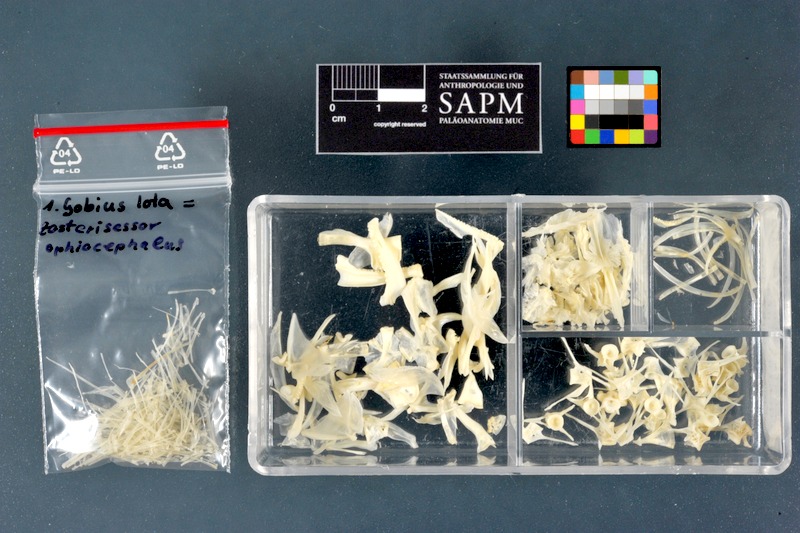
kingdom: Animalia
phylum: Chordata
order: Perciformes
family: Gobiidae
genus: Zosterisessor
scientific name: Zosterisessor ophiocephalus
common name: Grass goby
